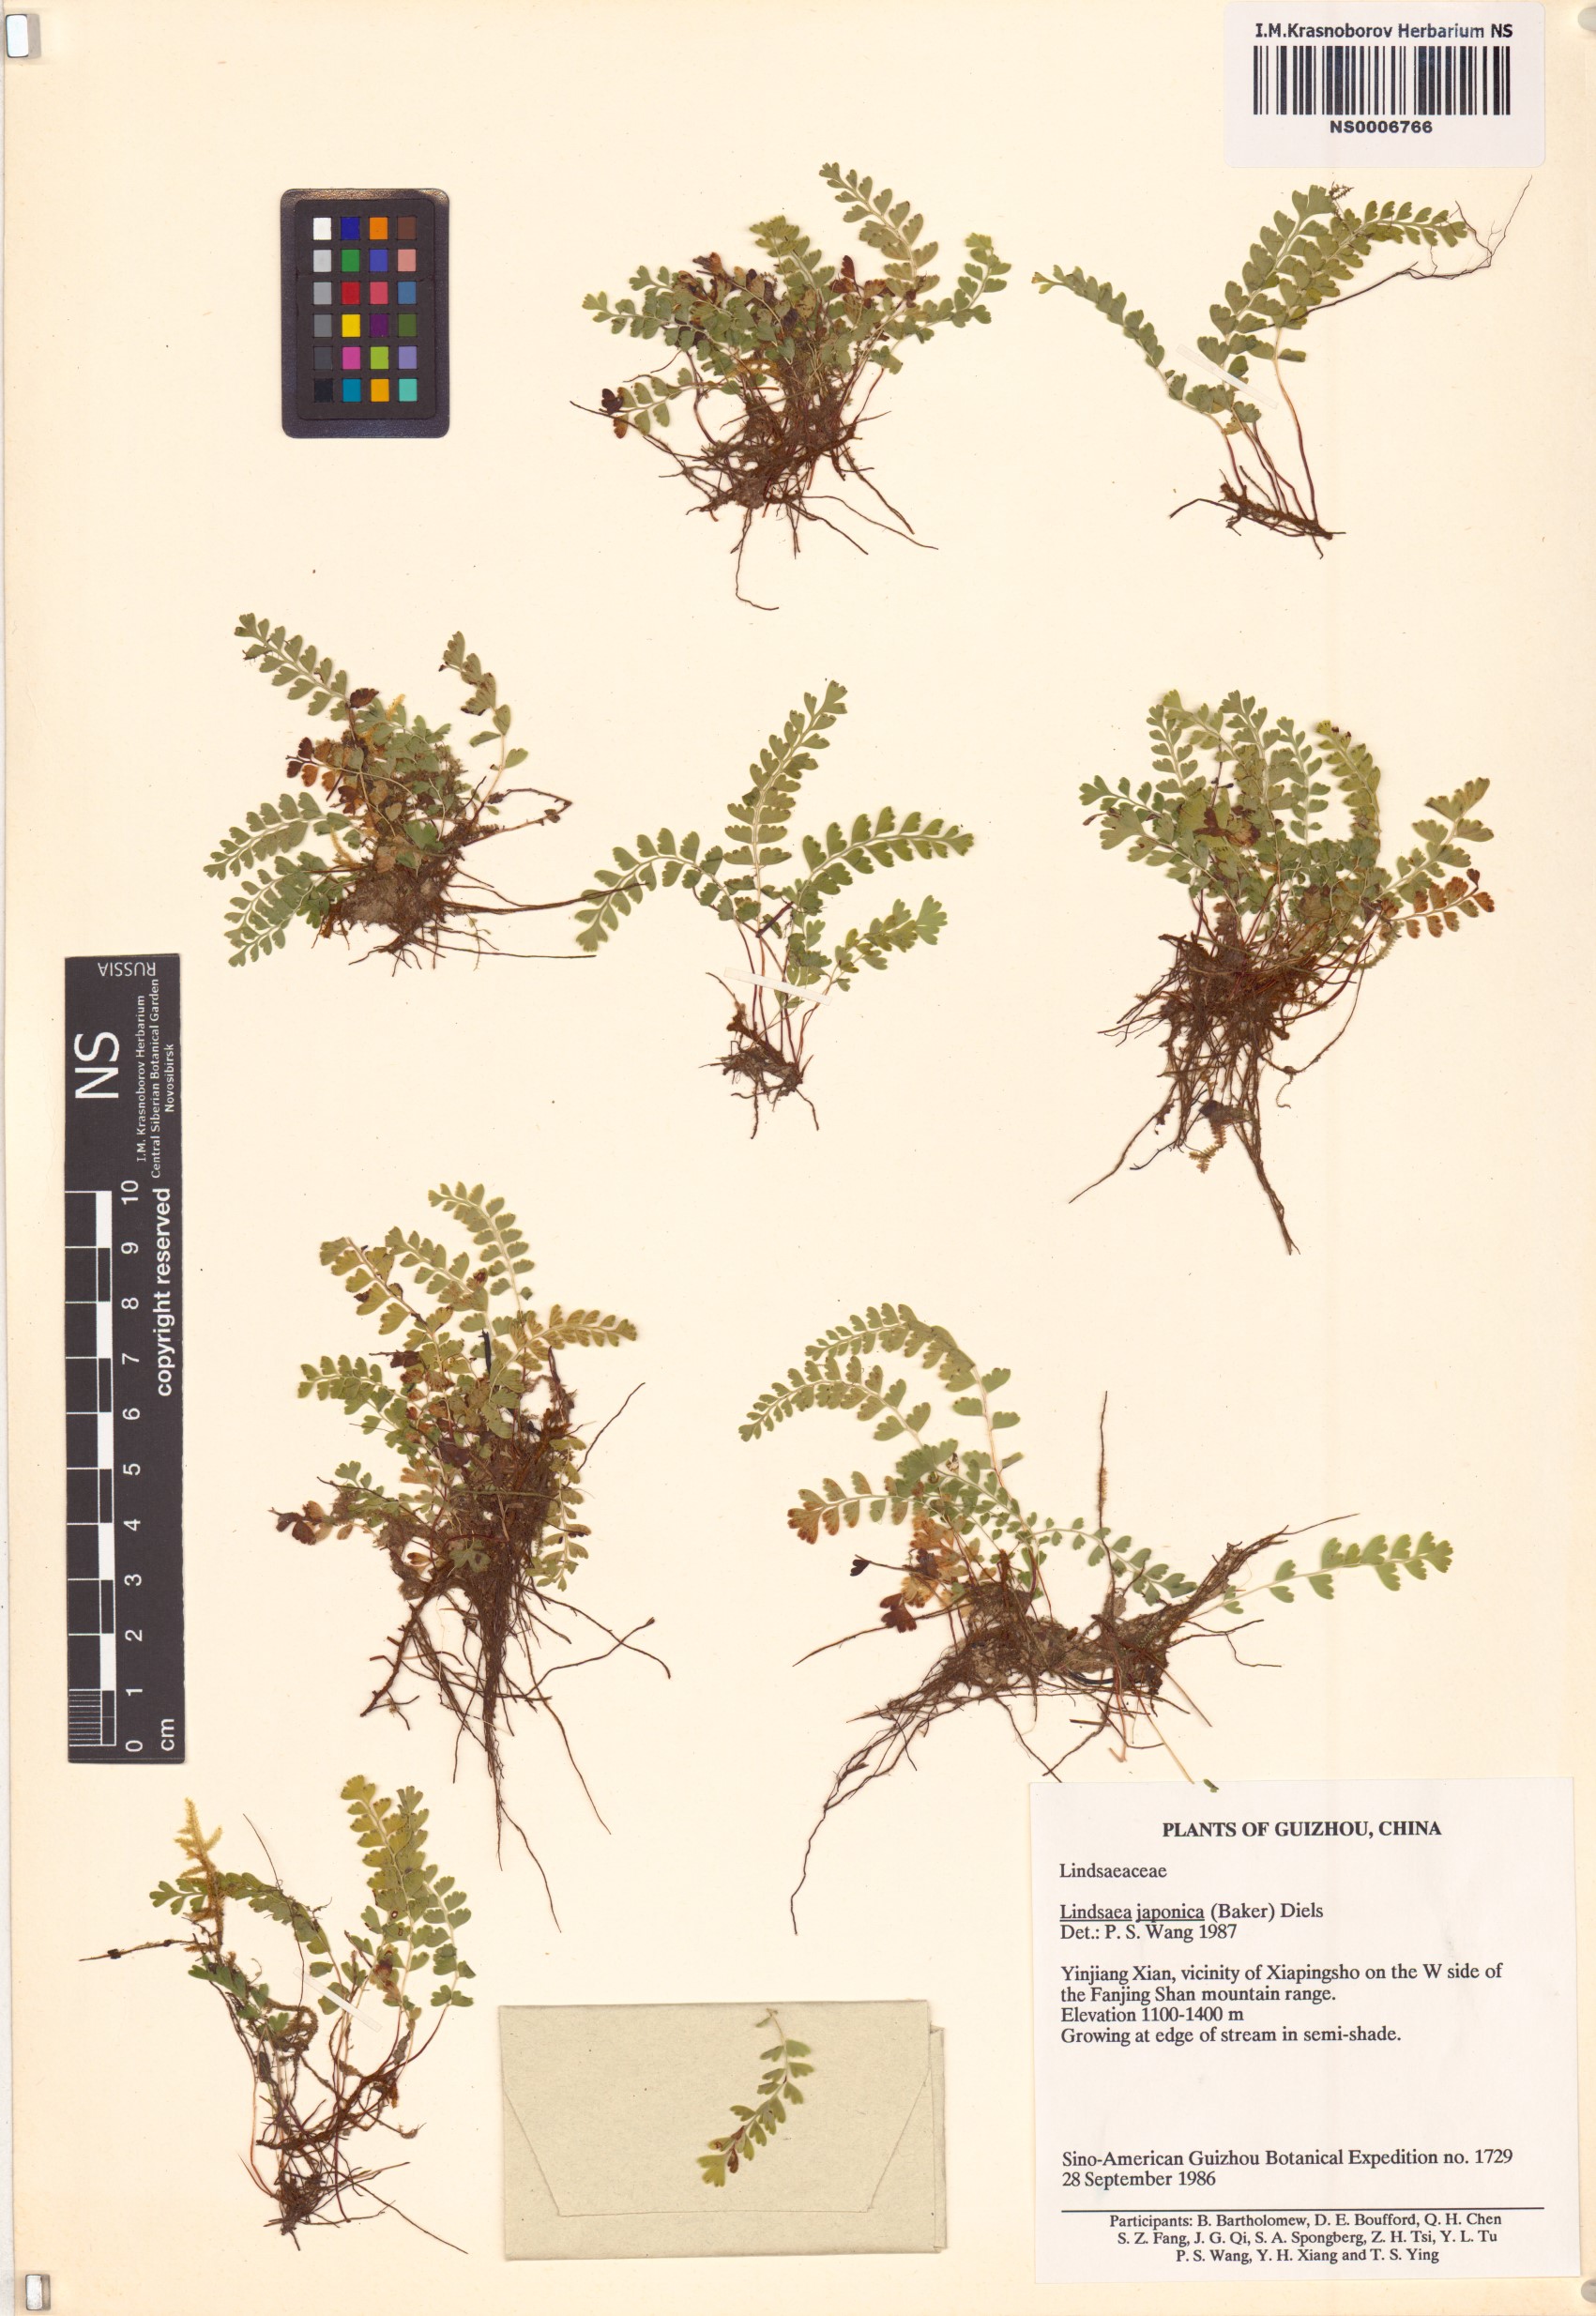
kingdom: Plantae
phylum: Tracheophyta
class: Polypodiopsida
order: Polypodiales
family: Lindsaeaceae
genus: Osmolindsaea
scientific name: Osmolindsaea japonica
